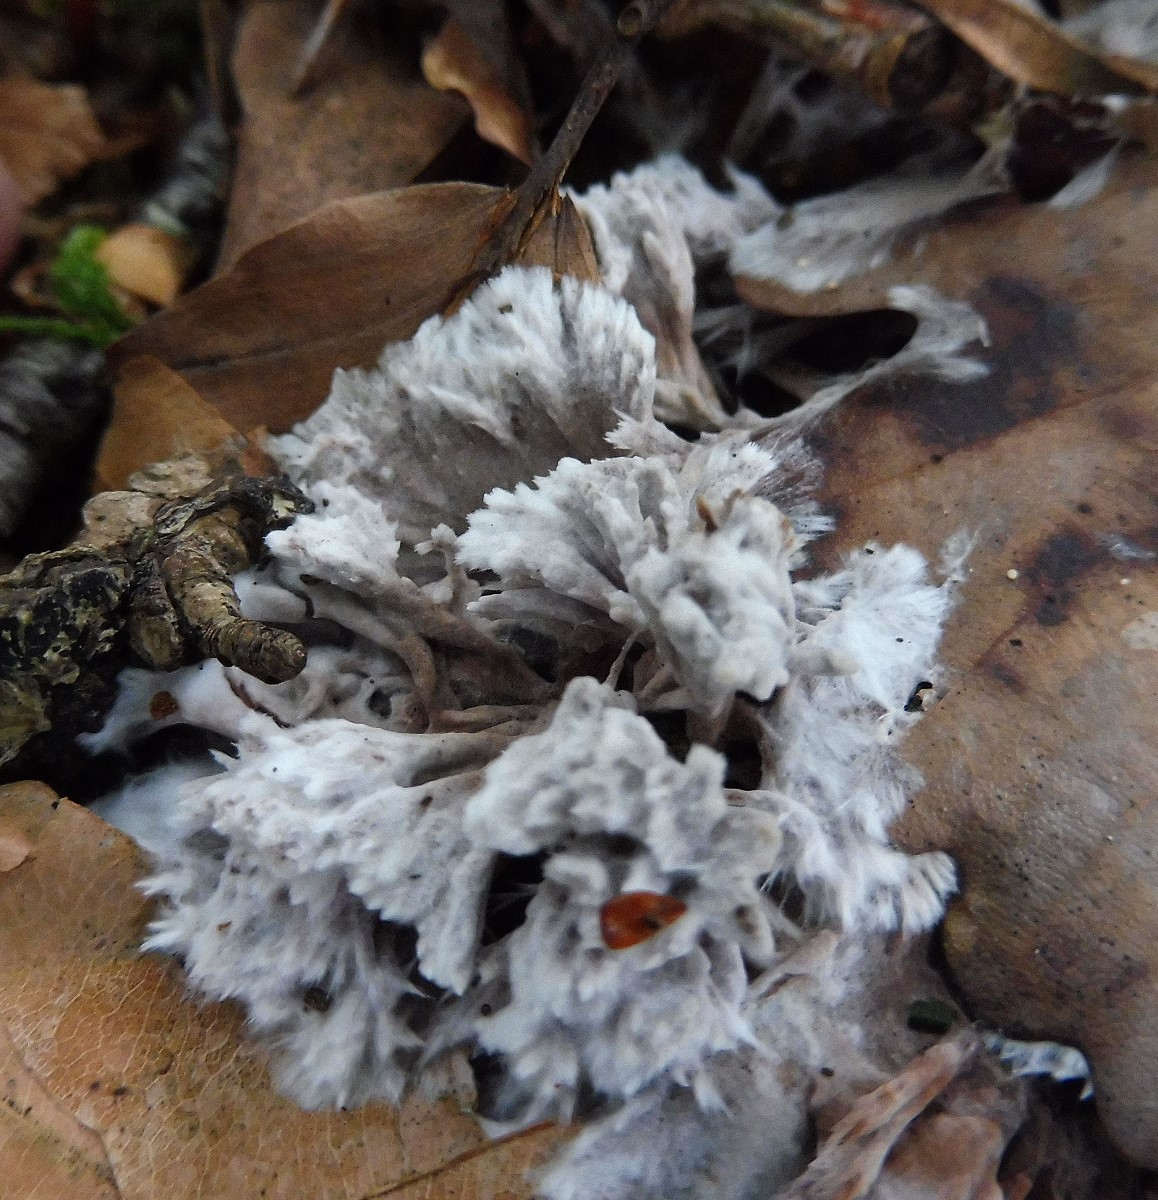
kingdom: Fungi
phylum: Basidiomycota
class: Agaricomycetes
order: Thelephorales
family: Thelephoraceae
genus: Thelephora
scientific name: Thelephora penicillata
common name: fladtrådt frynsesvamp
